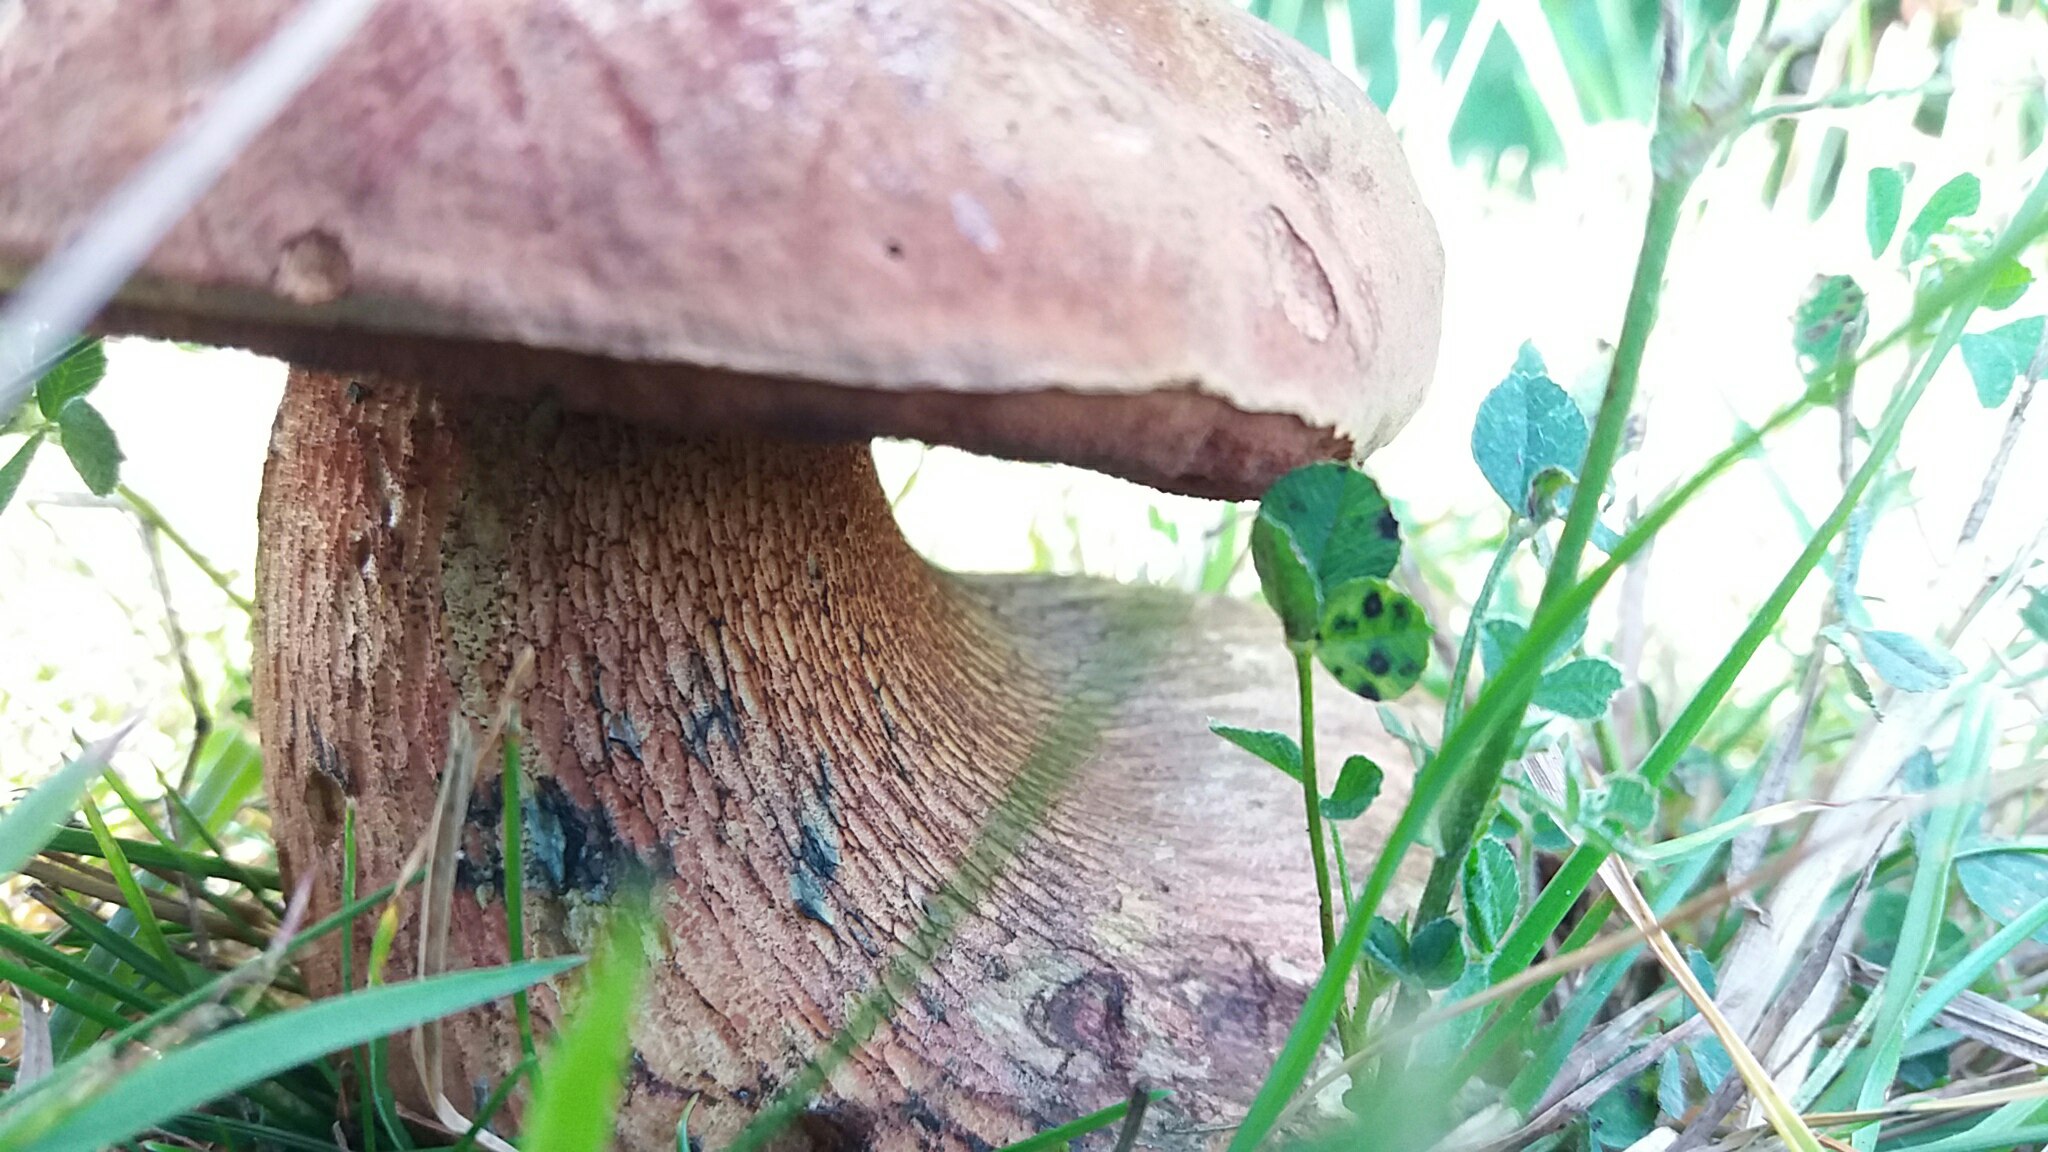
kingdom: Fungi
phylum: Basidiomycota
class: Agaricomycetes
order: Boletales
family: Boletaceae
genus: Suillellus
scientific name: Suillellus luridus
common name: netstokket indigorørhat
